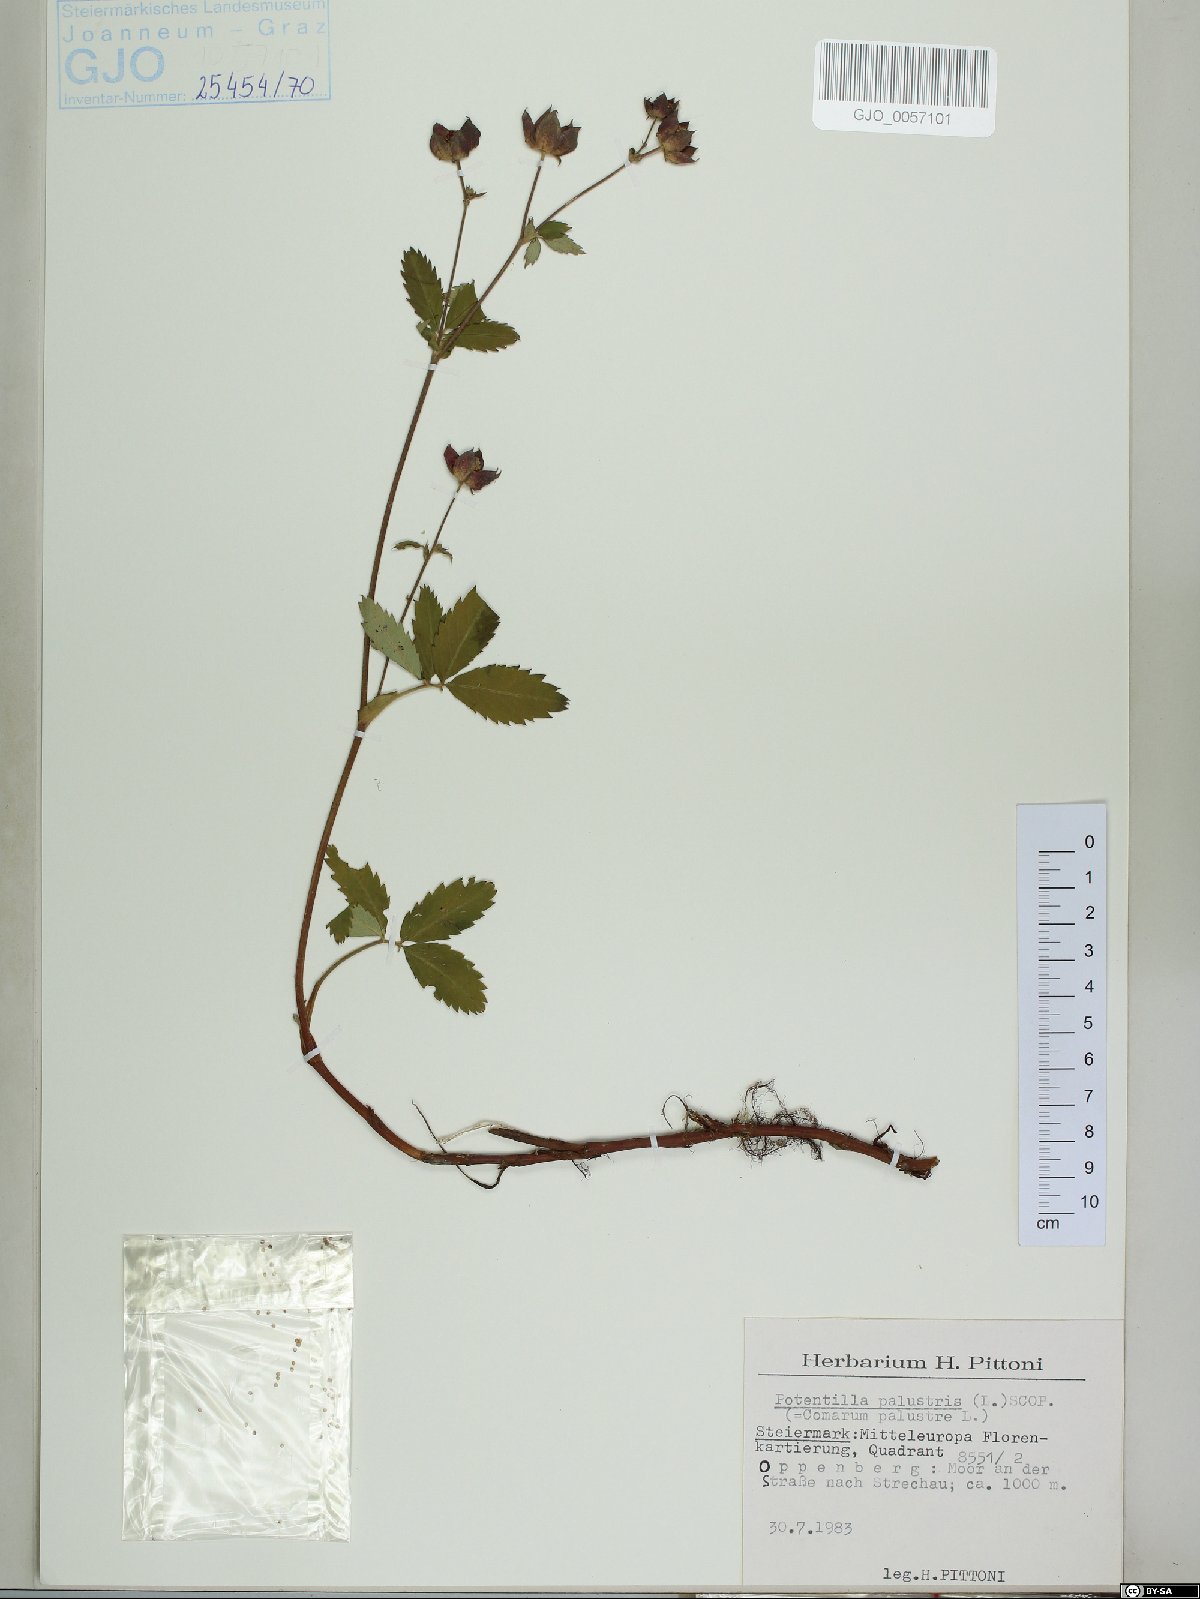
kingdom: Plantae
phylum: Tracheophyta
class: Magnoliopsida
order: Rosales
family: Rosaceae
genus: Comarum
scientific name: Comarum palustre
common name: Marsh cinquefoil
